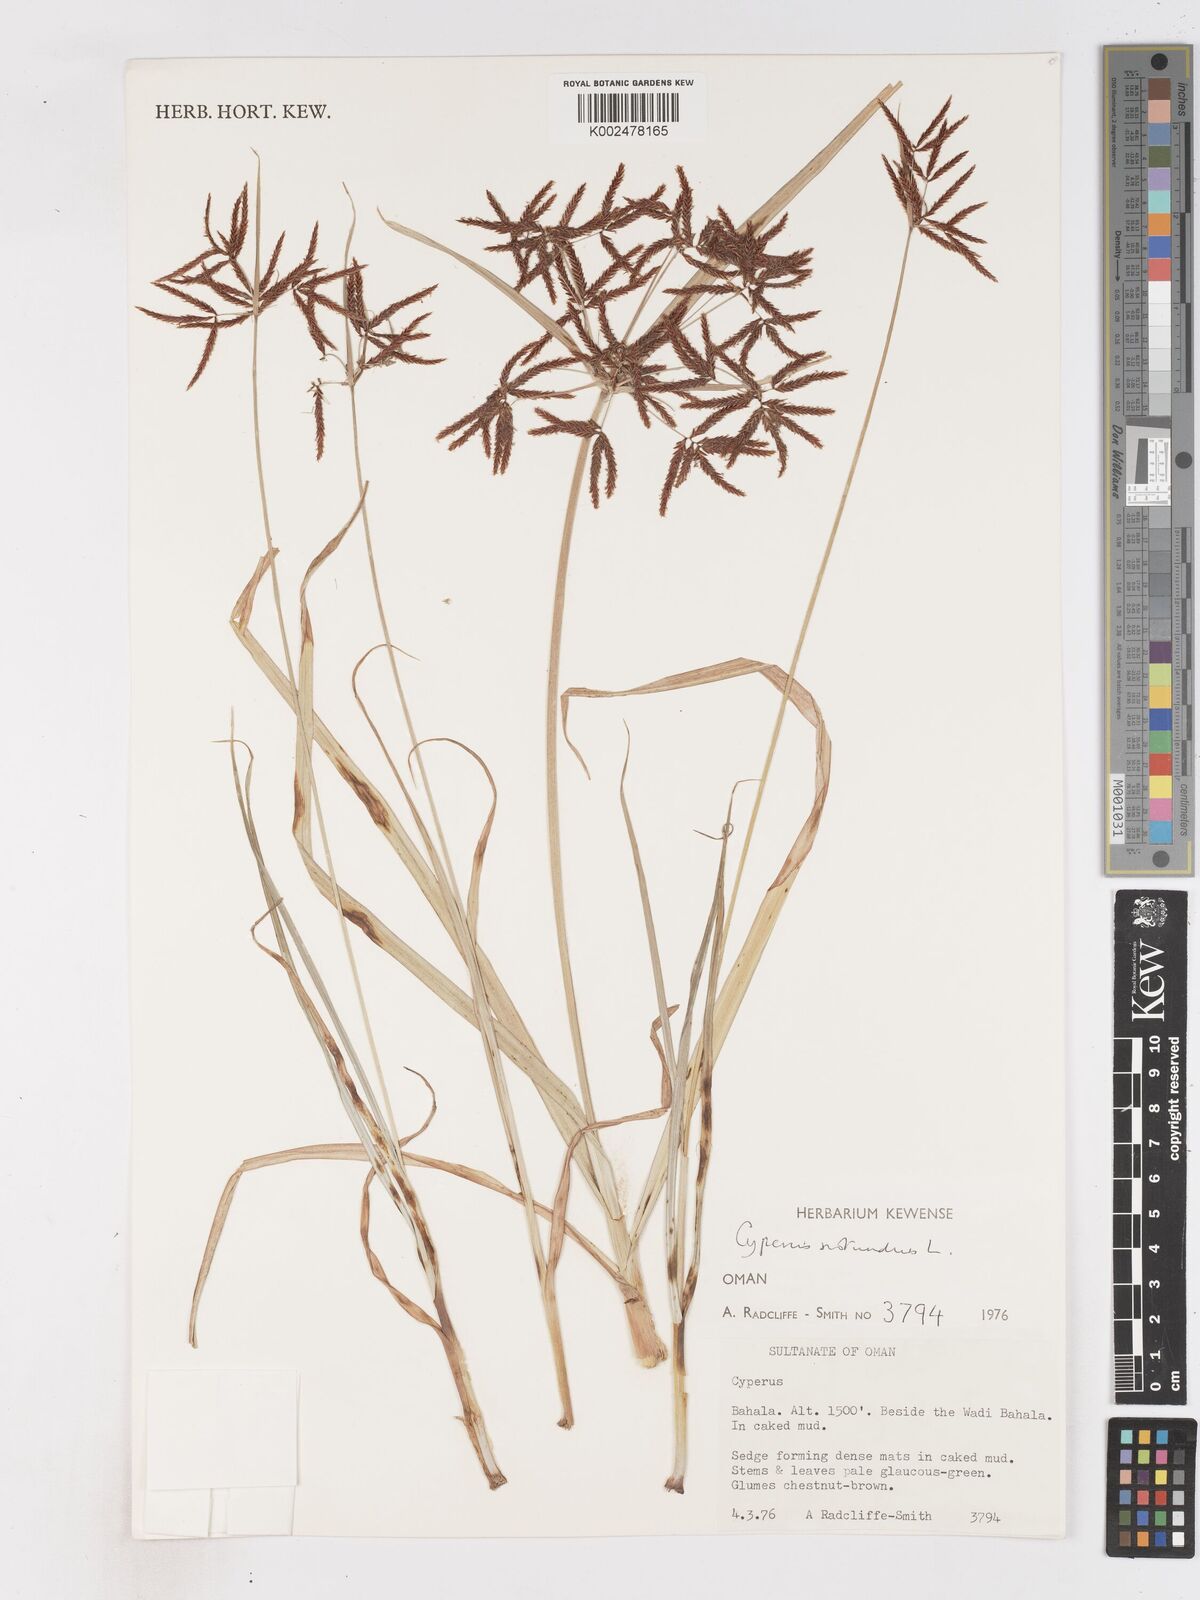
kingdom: Plantae
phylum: Tracheophyta
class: Liliopsida
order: Poales
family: Cyperaceae
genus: Cyperus
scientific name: Cyperus nubicus
